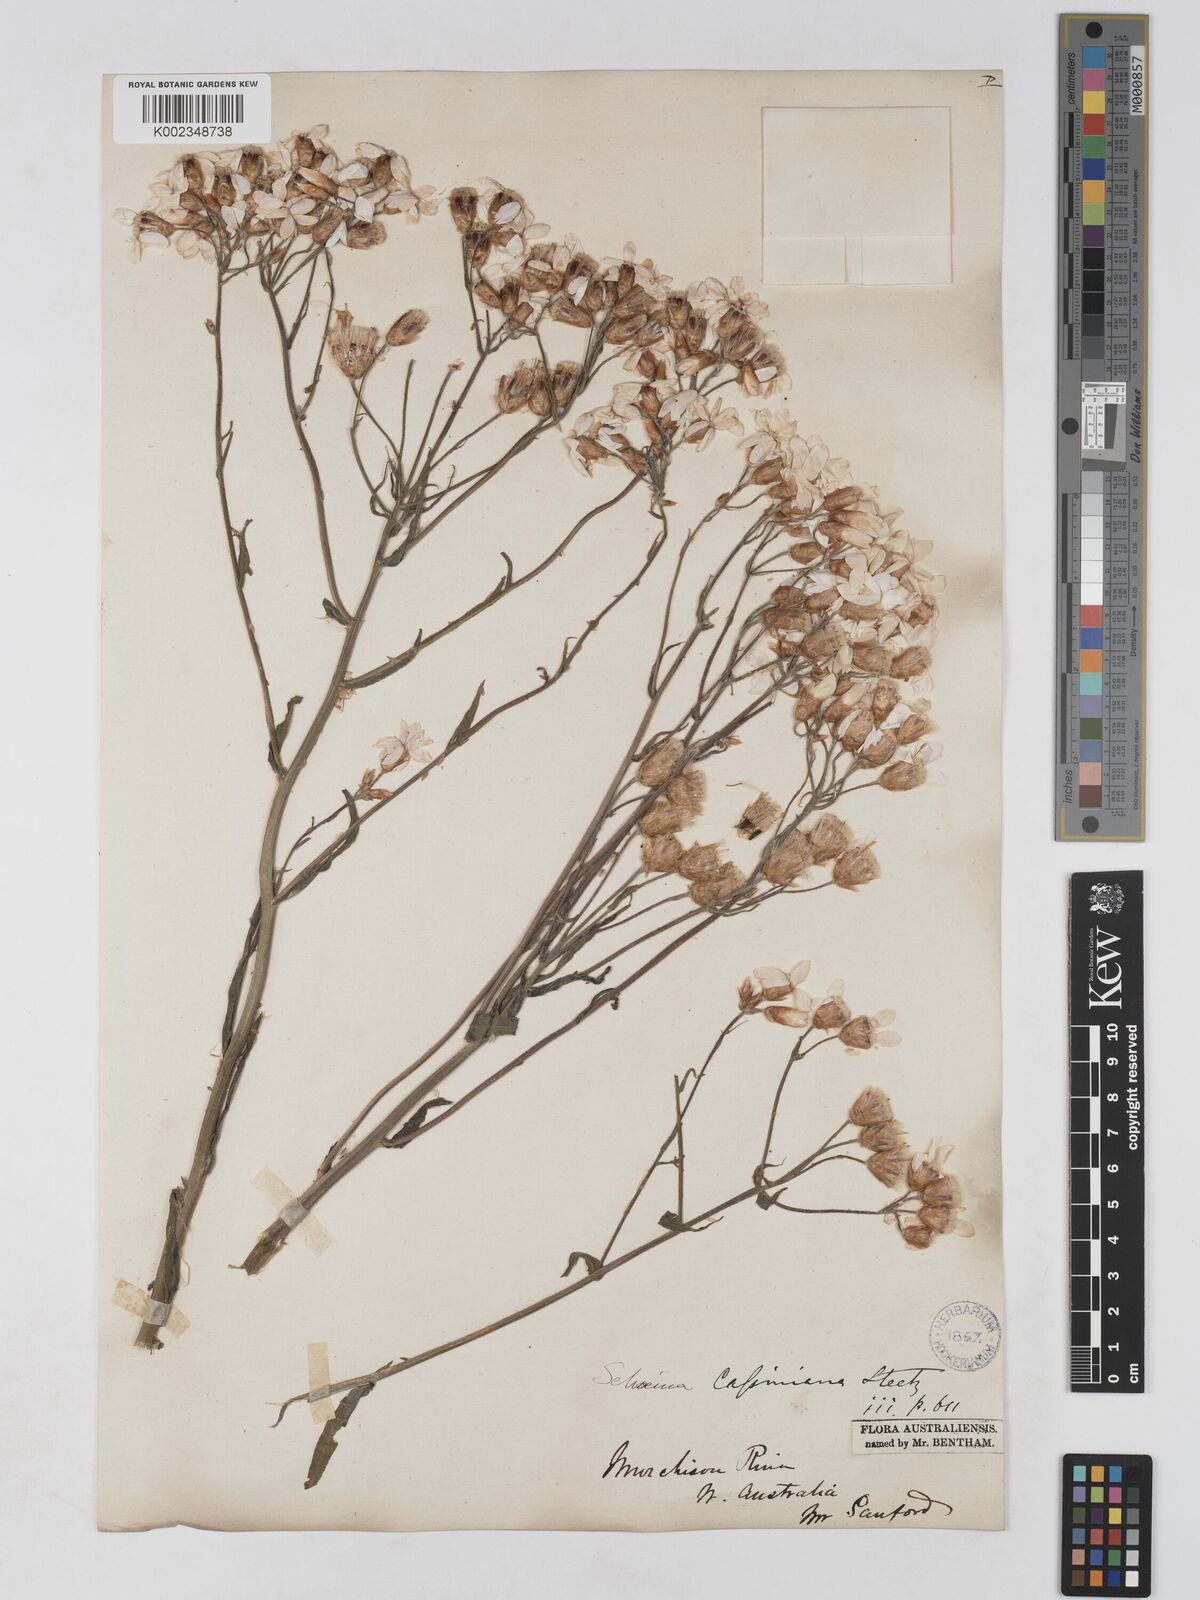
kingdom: Plantae
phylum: Tracheophyta
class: Magnoliopsida
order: Asterales
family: Asteraceae
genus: Schoenia
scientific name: Schoenia cassiniana
